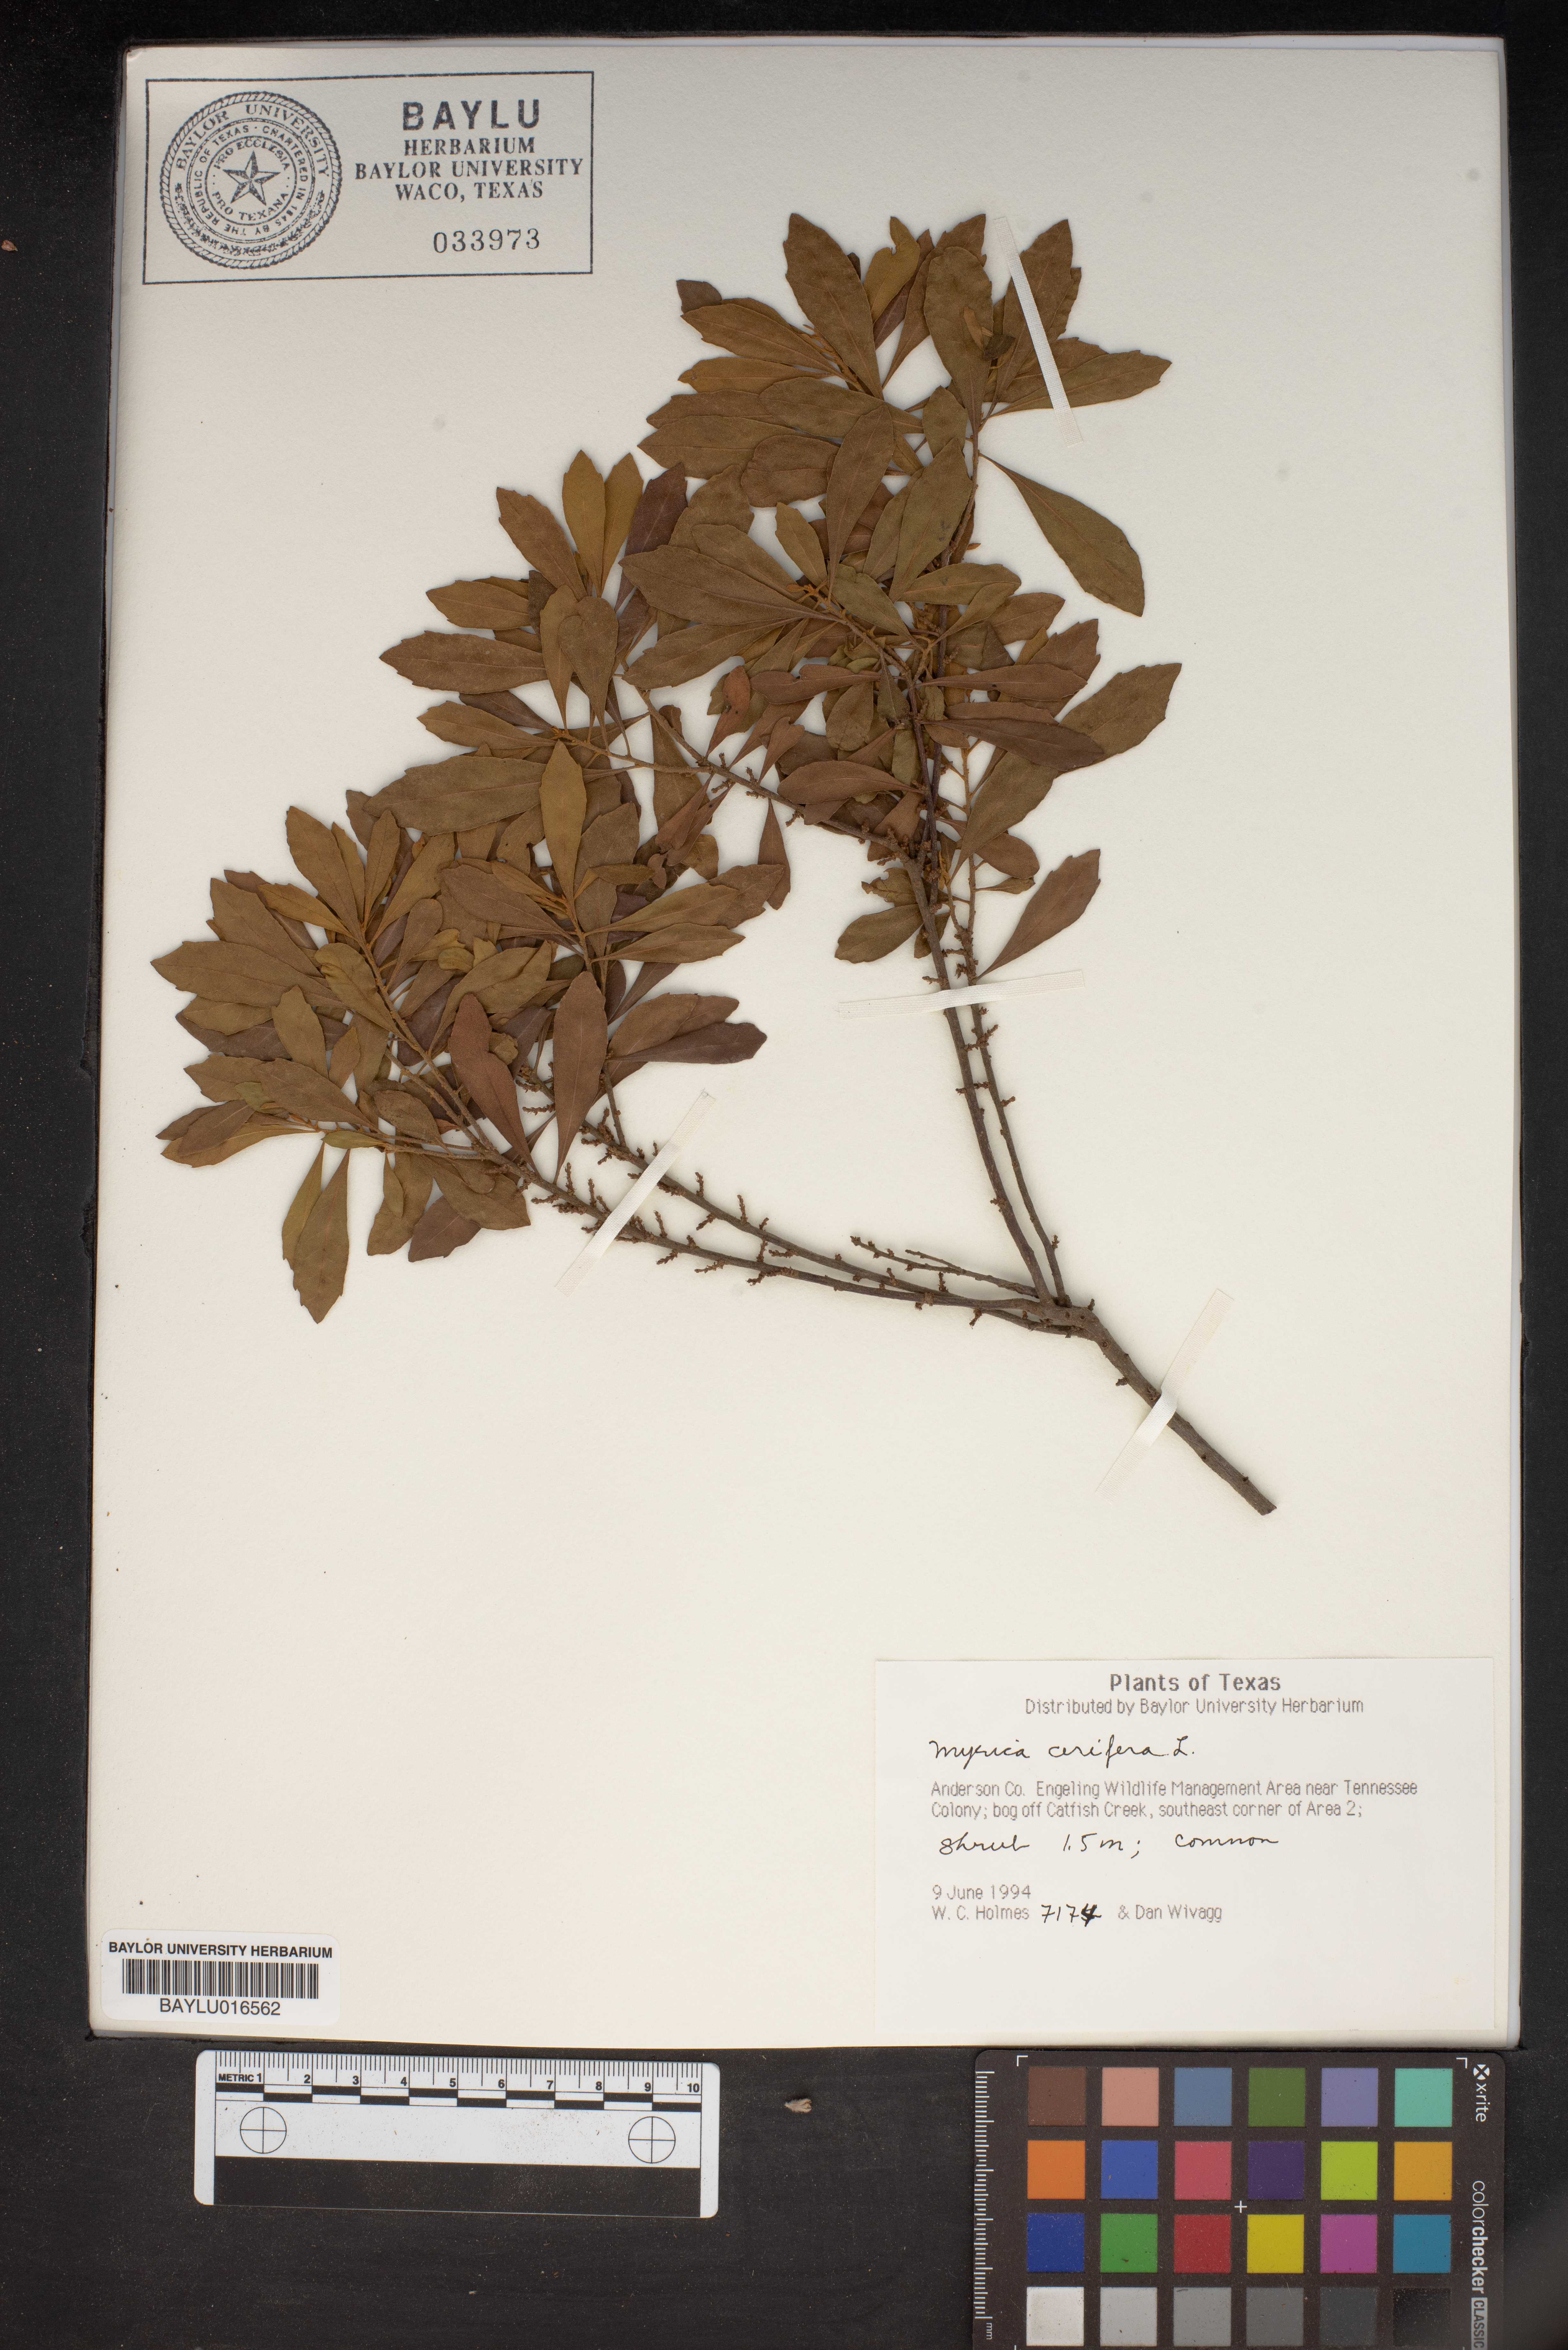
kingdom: Plantae
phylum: Tracheophyta
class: Magnoliopsida
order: Fagales
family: Myricaceae
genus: Morella
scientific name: Morella cerifera
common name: Wax myrtle
